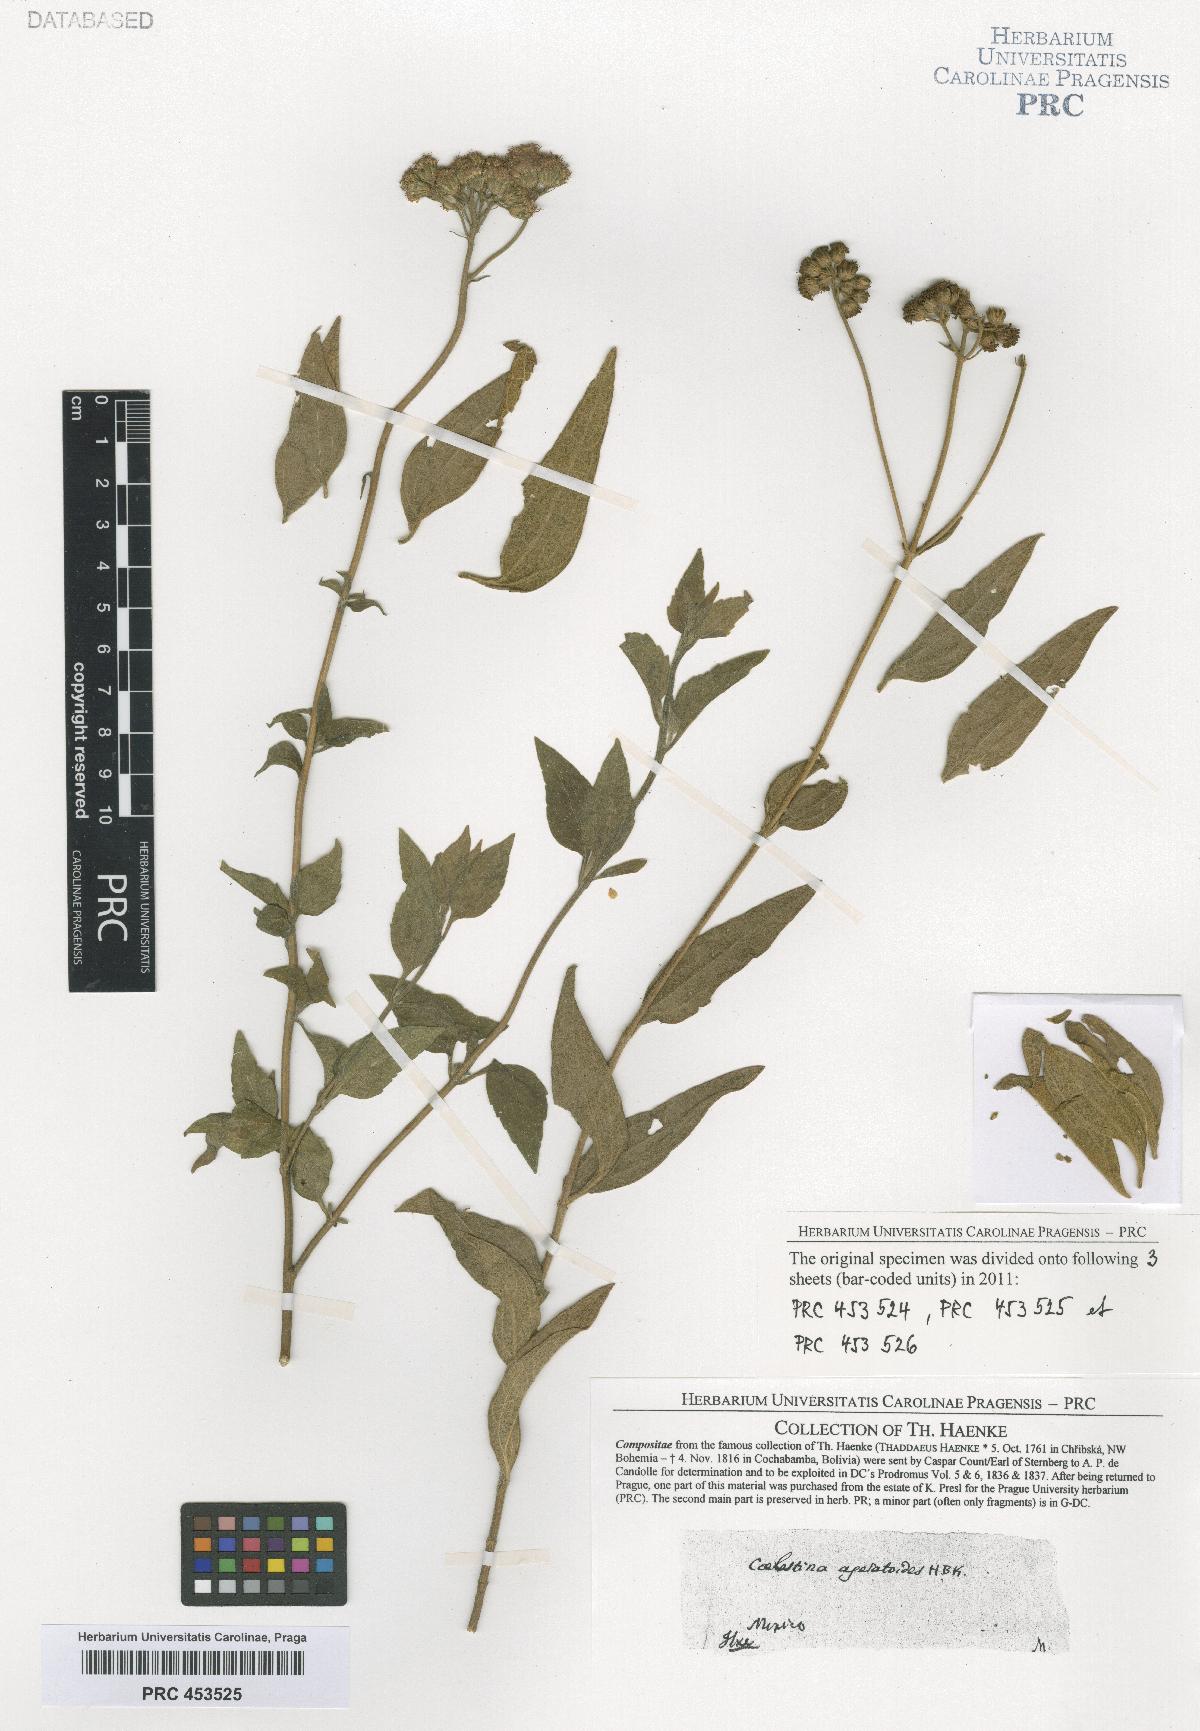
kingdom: Plantae
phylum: Tracheophyta
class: Magnoliopsida
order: Asterales
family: Asteraceae
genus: Ageratum
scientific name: Ageratum corymbosum
